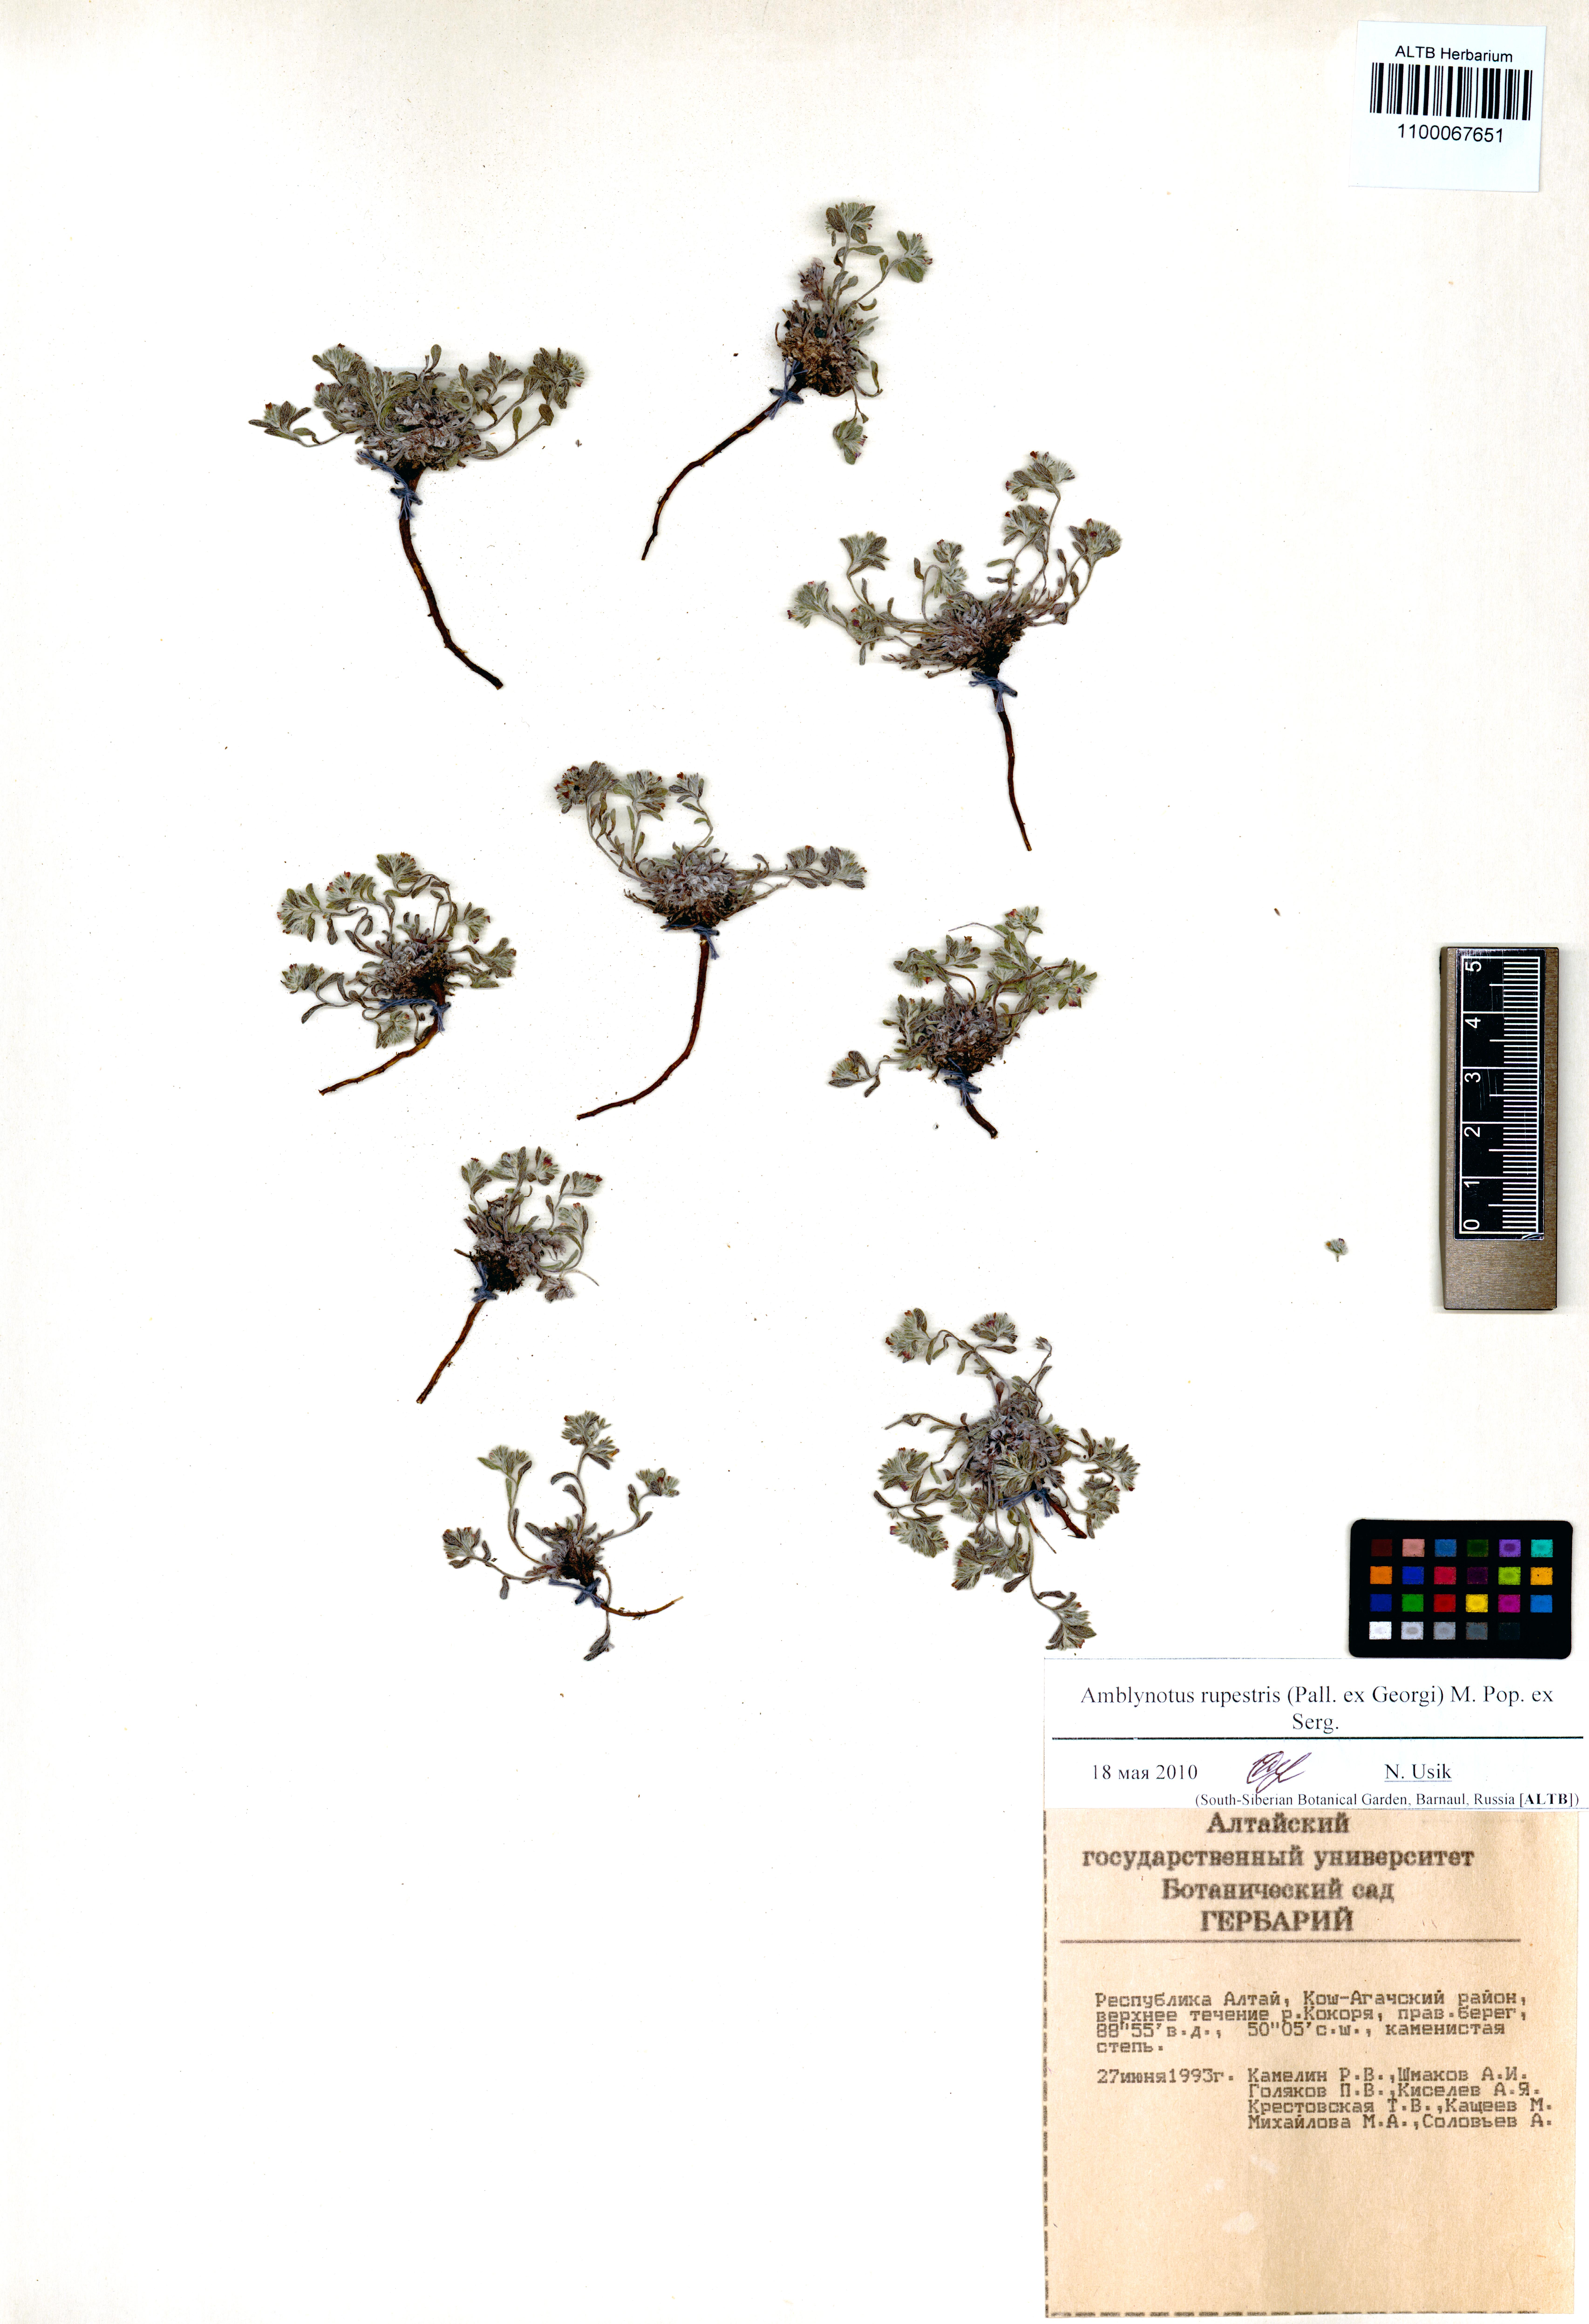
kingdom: Plantae
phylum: Tracheophyta
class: Magnoliopsida
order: Boraginales
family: Boraginaceae
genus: Eritrichium
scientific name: Eritrichium rupestre
